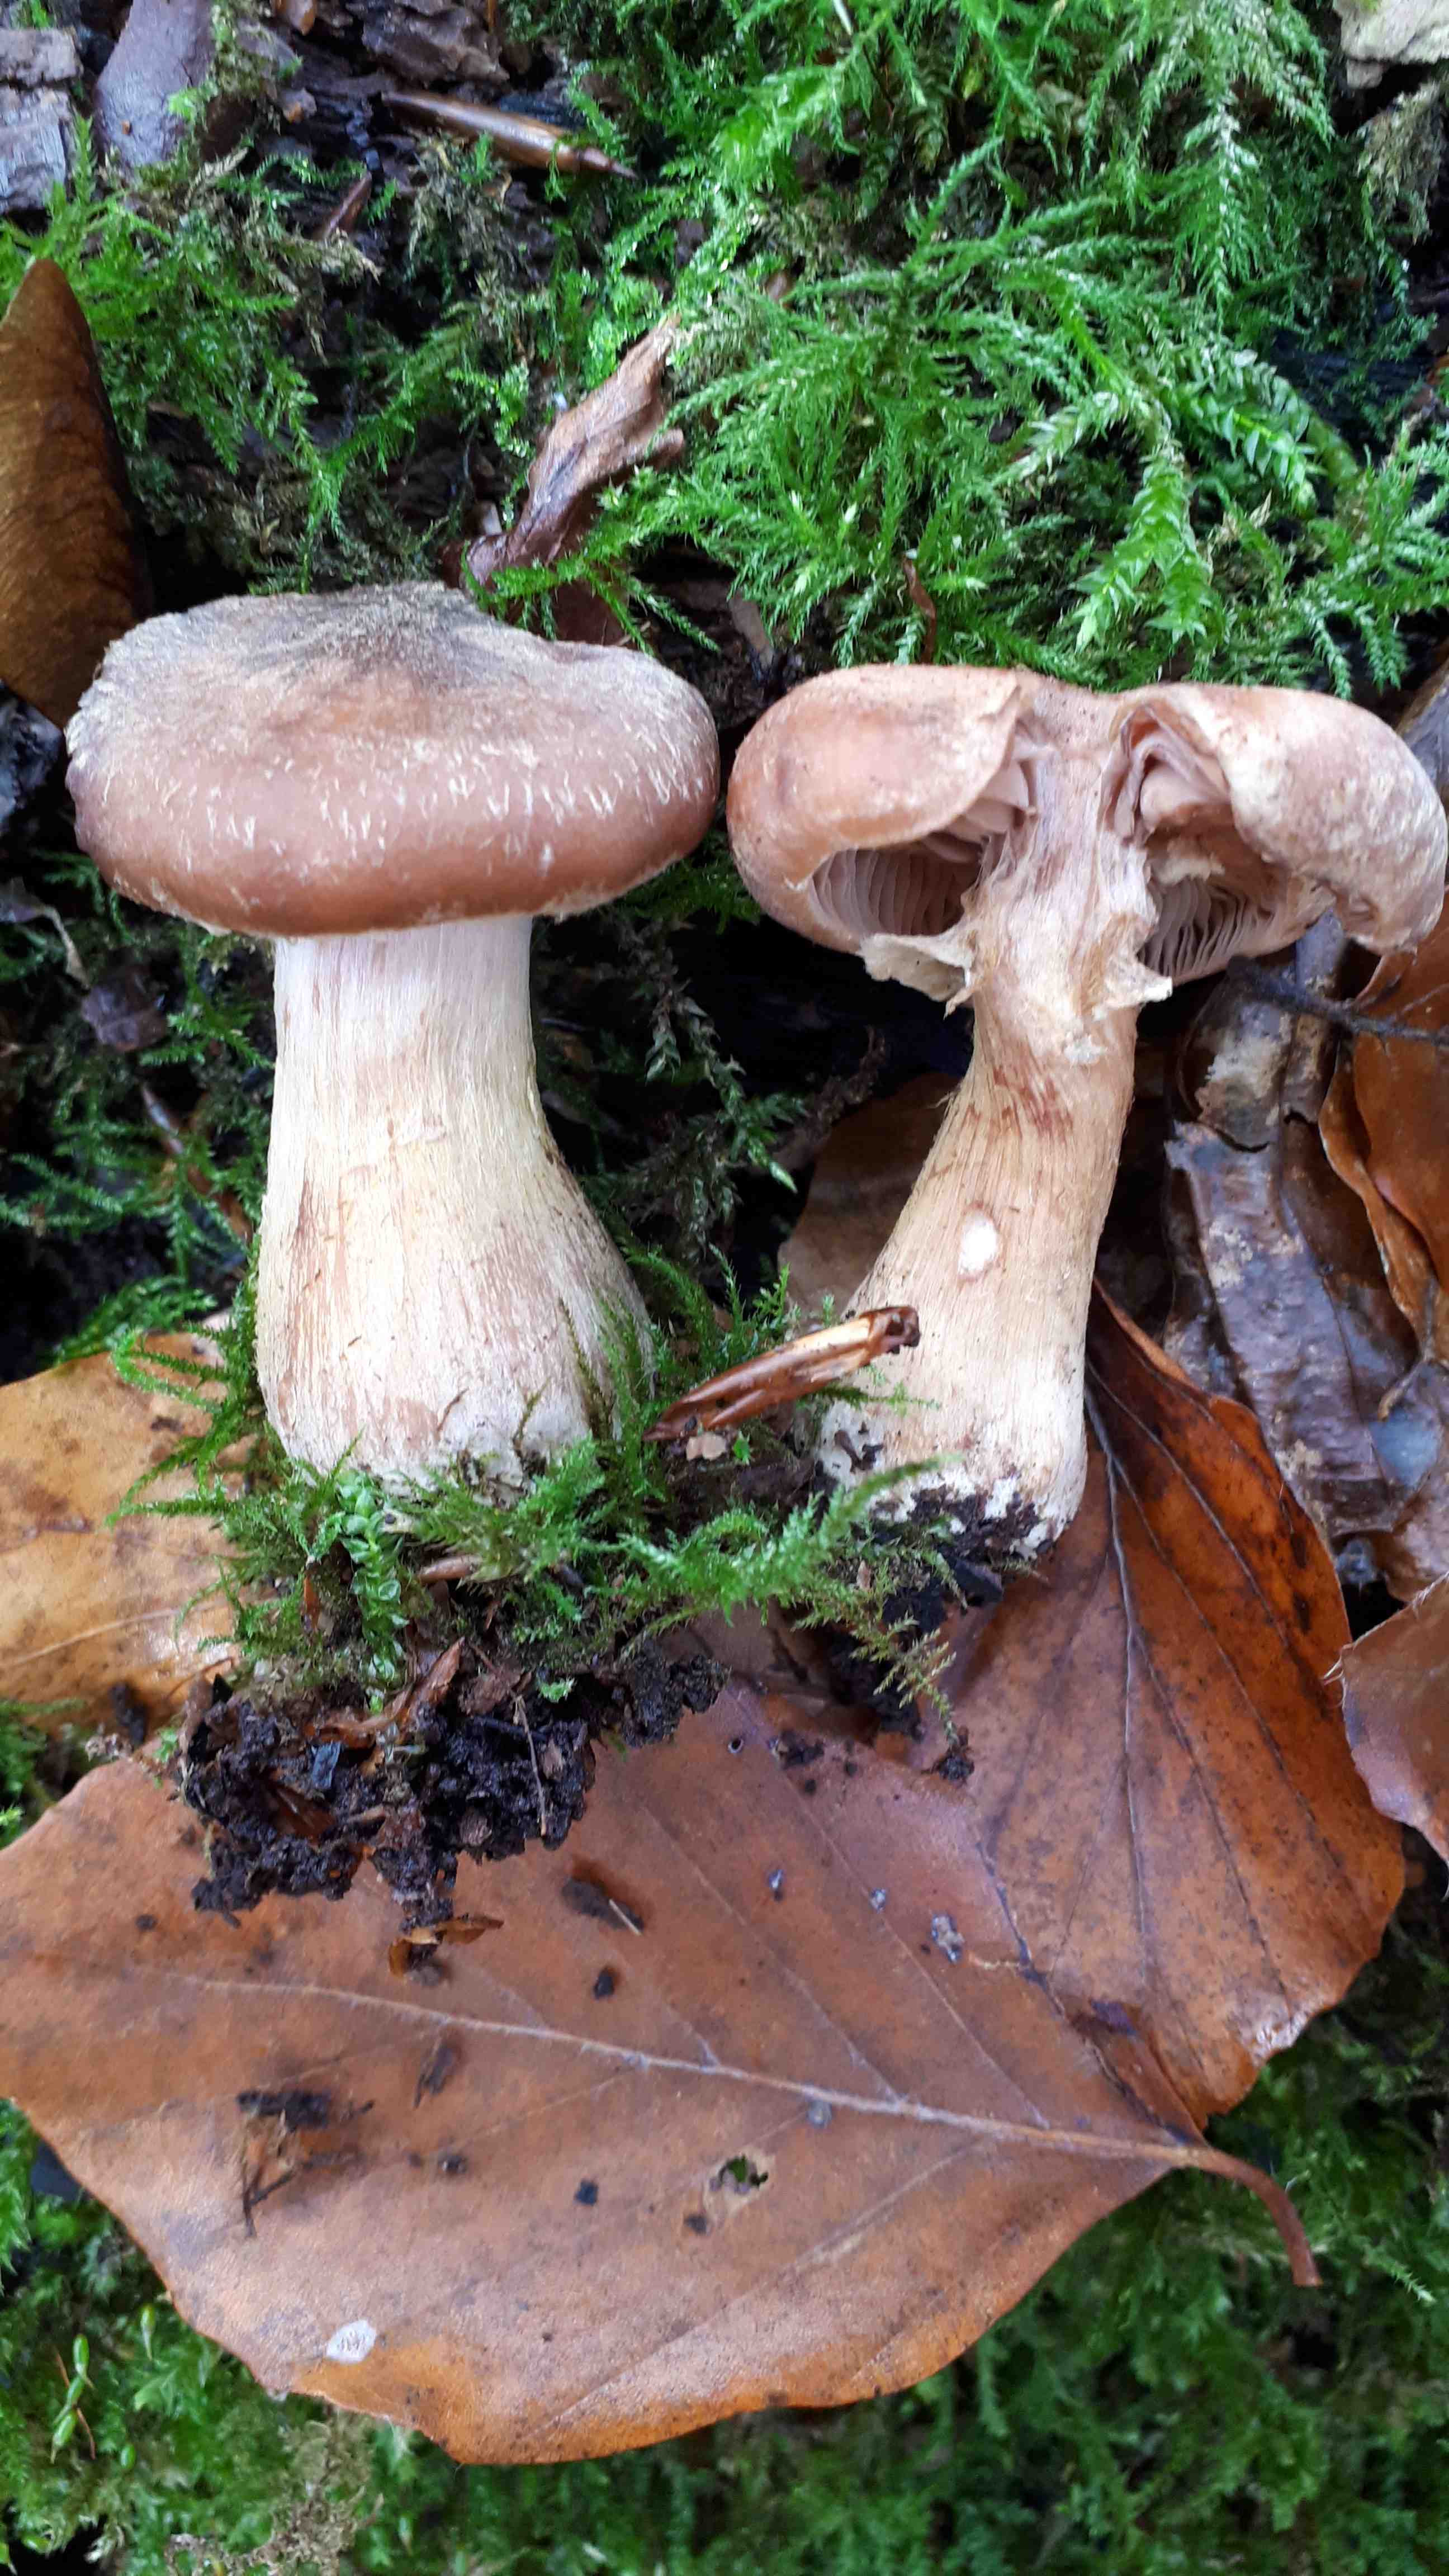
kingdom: Fungi
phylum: Basidiomycota
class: Agaricomycetes
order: Agaricales
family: Physalacriaceae
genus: Armillaria
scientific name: Armillaria lutea
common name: køllestokket honningsvamp
